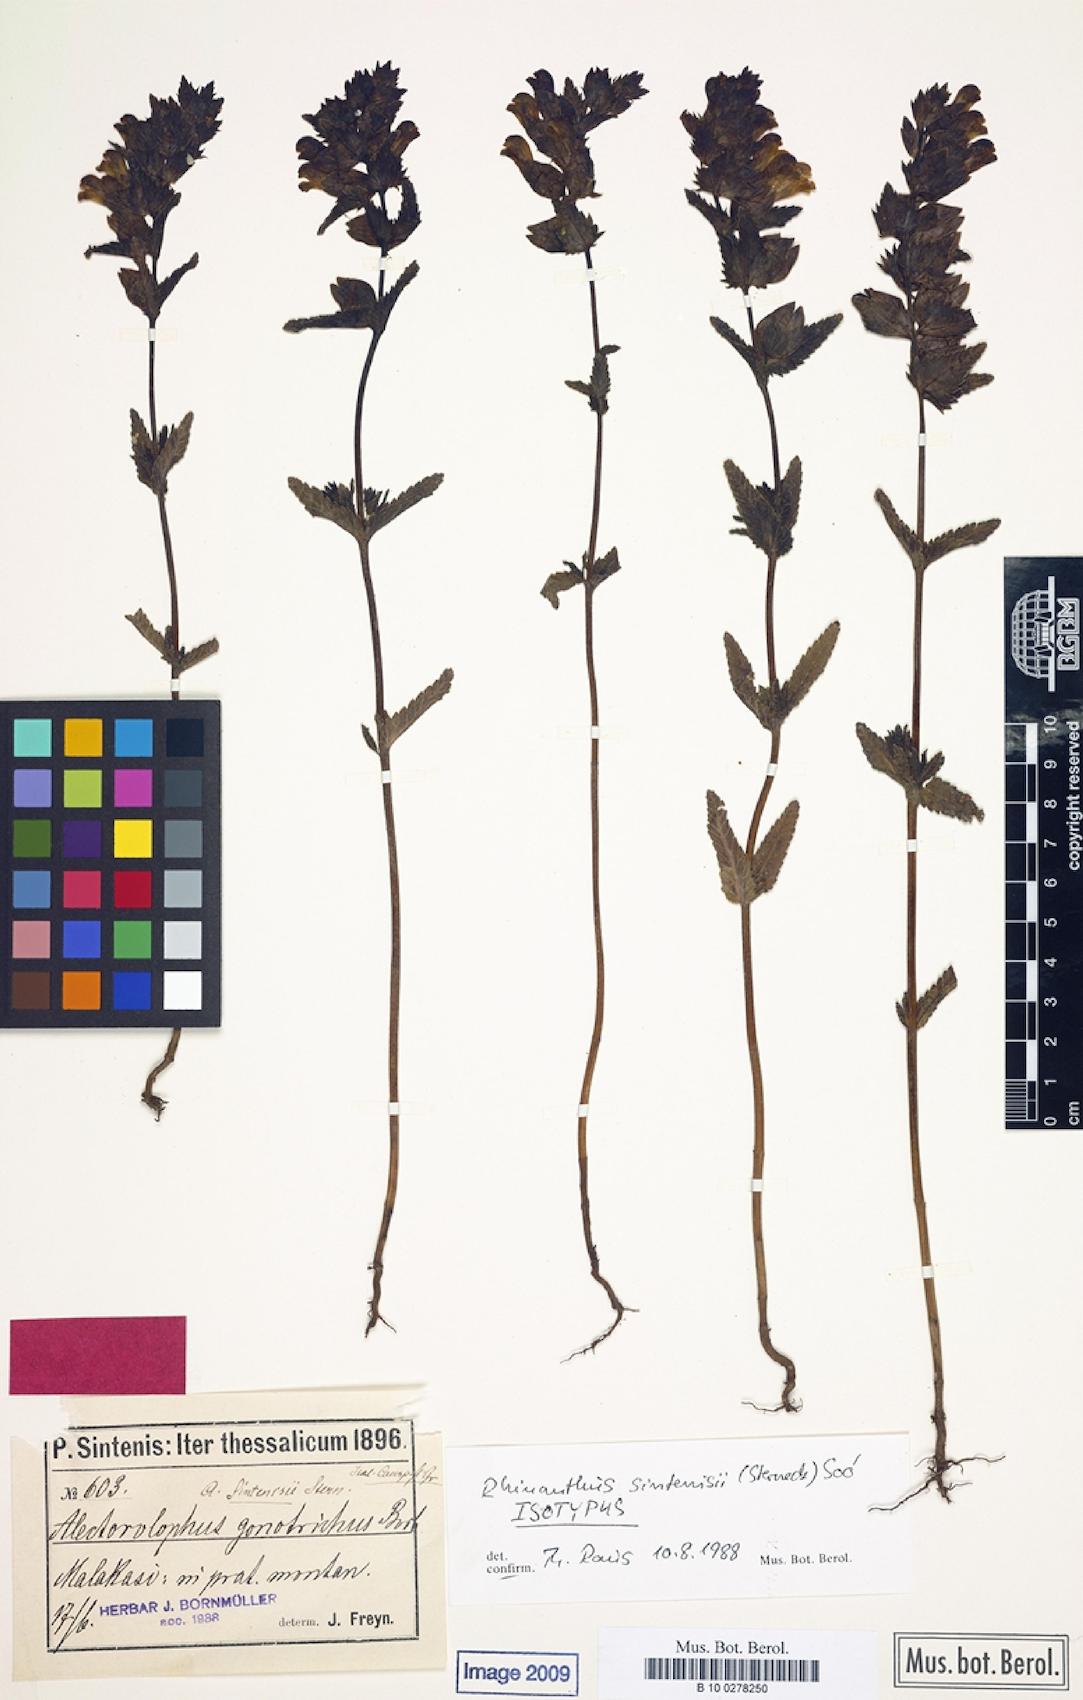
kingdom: Plantae
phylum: Tracheophyta
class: Magnoliopsida
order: Lamiales
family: Orobanchaceae
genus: Rhinanthus
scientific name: Rhinanthus sintenisii
